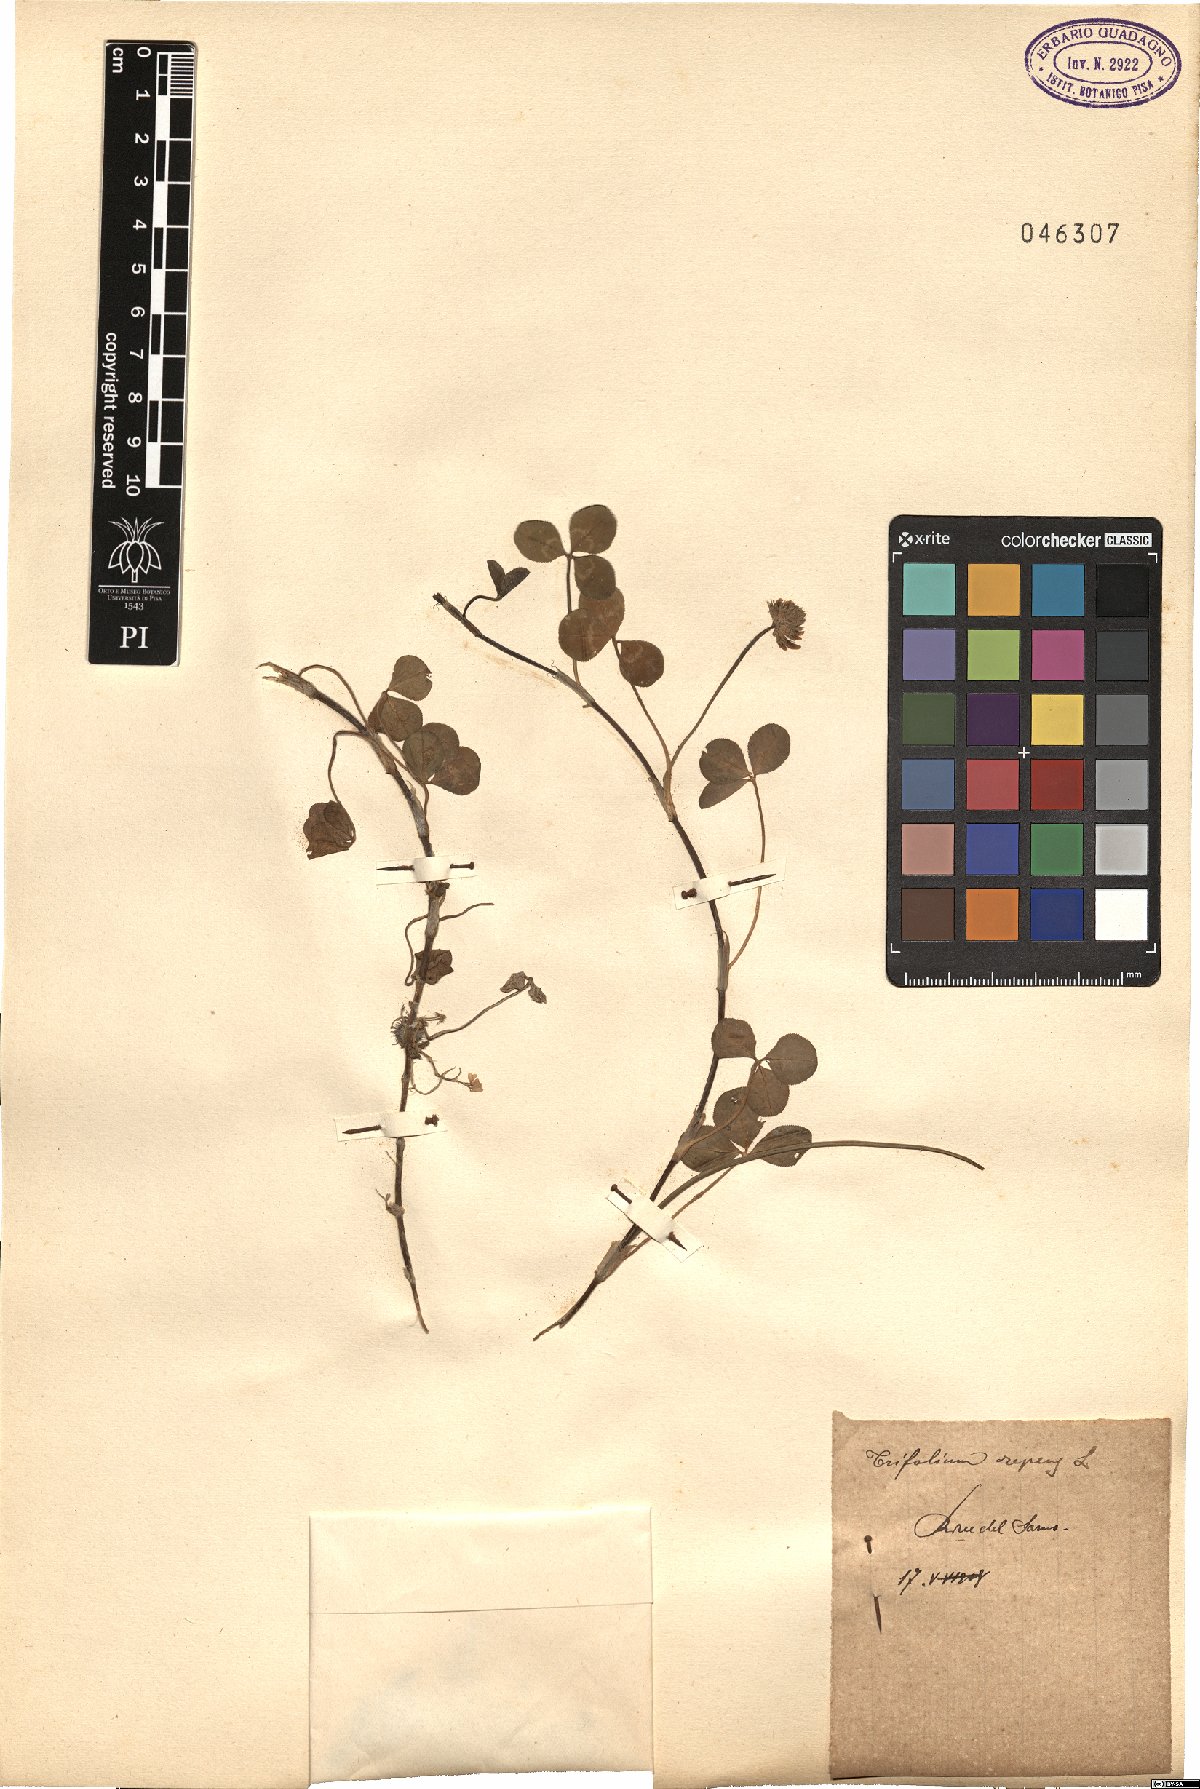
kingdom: Plantae
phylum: Tracheophyta
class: Magnoliopsida
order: Fabales
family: Fabaceae
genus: Trifolium
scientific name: Trifolium repens
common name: White clover
